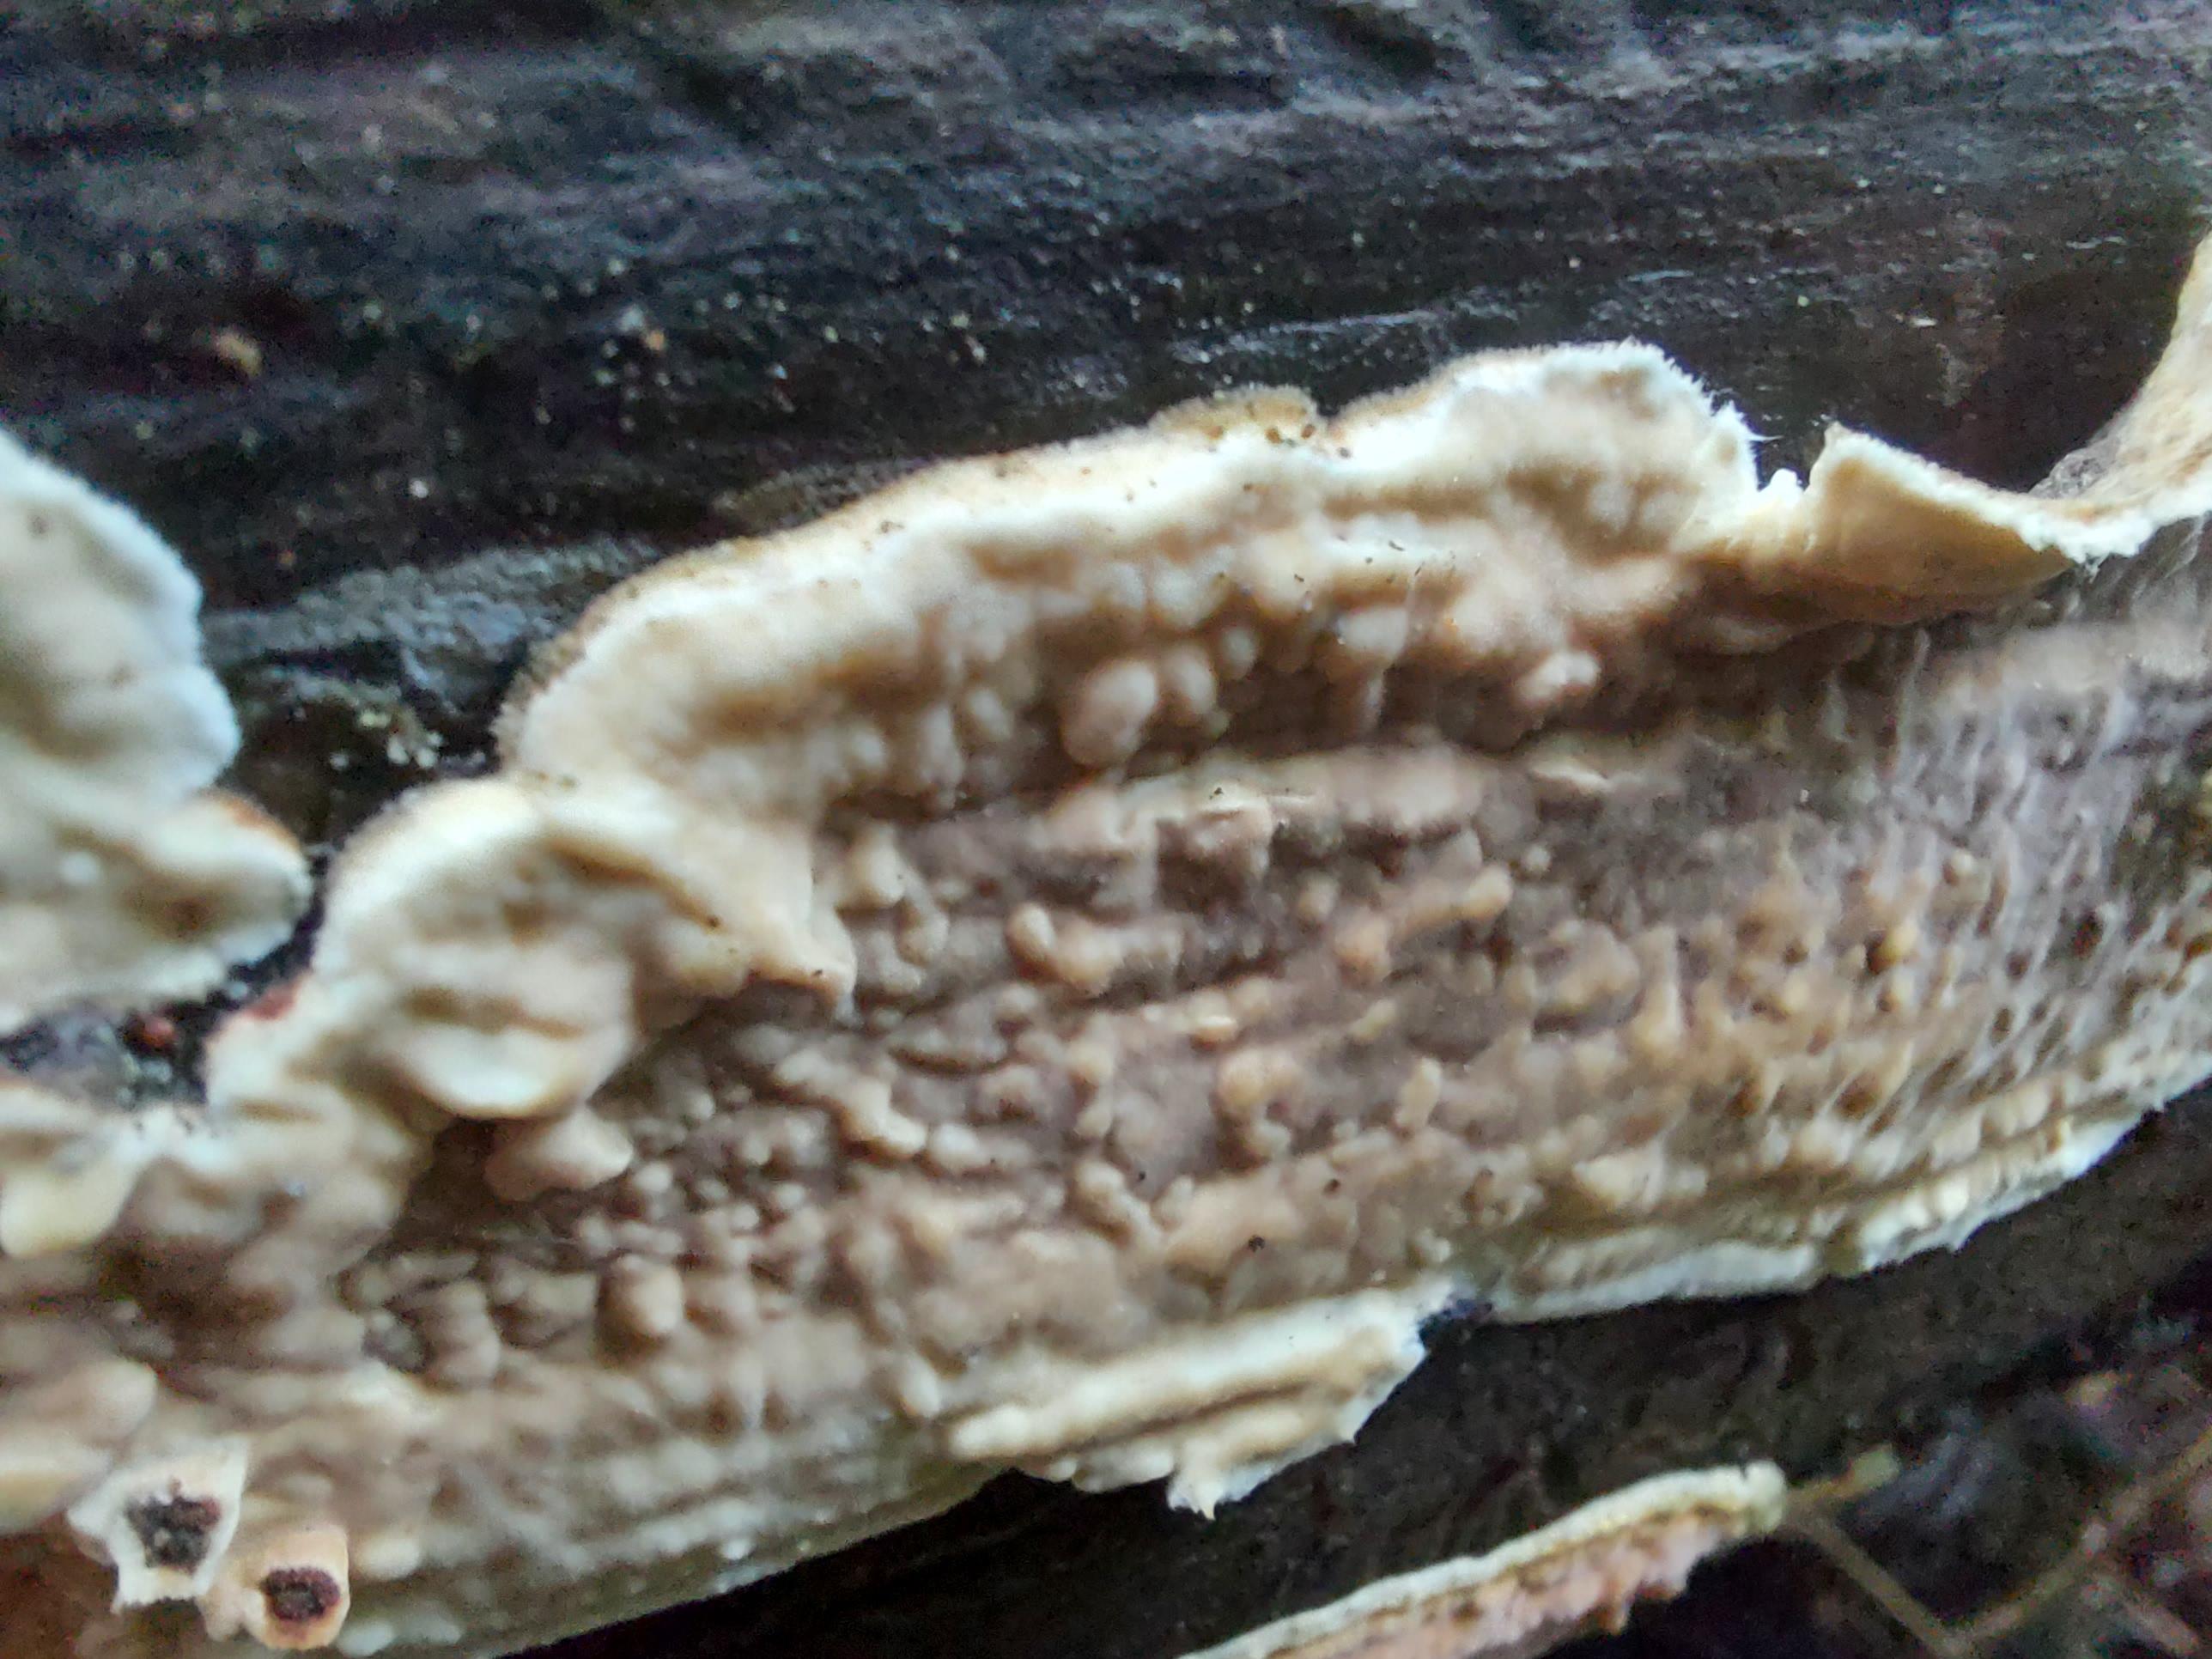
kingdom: Fungi
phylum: Basidiomycota
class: Agaricomycetes
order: Polyporales
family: Dacryobolaceae
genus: Dacryobolus
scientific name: Dacryobolus karstenii
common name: glat vulkanskorpe
